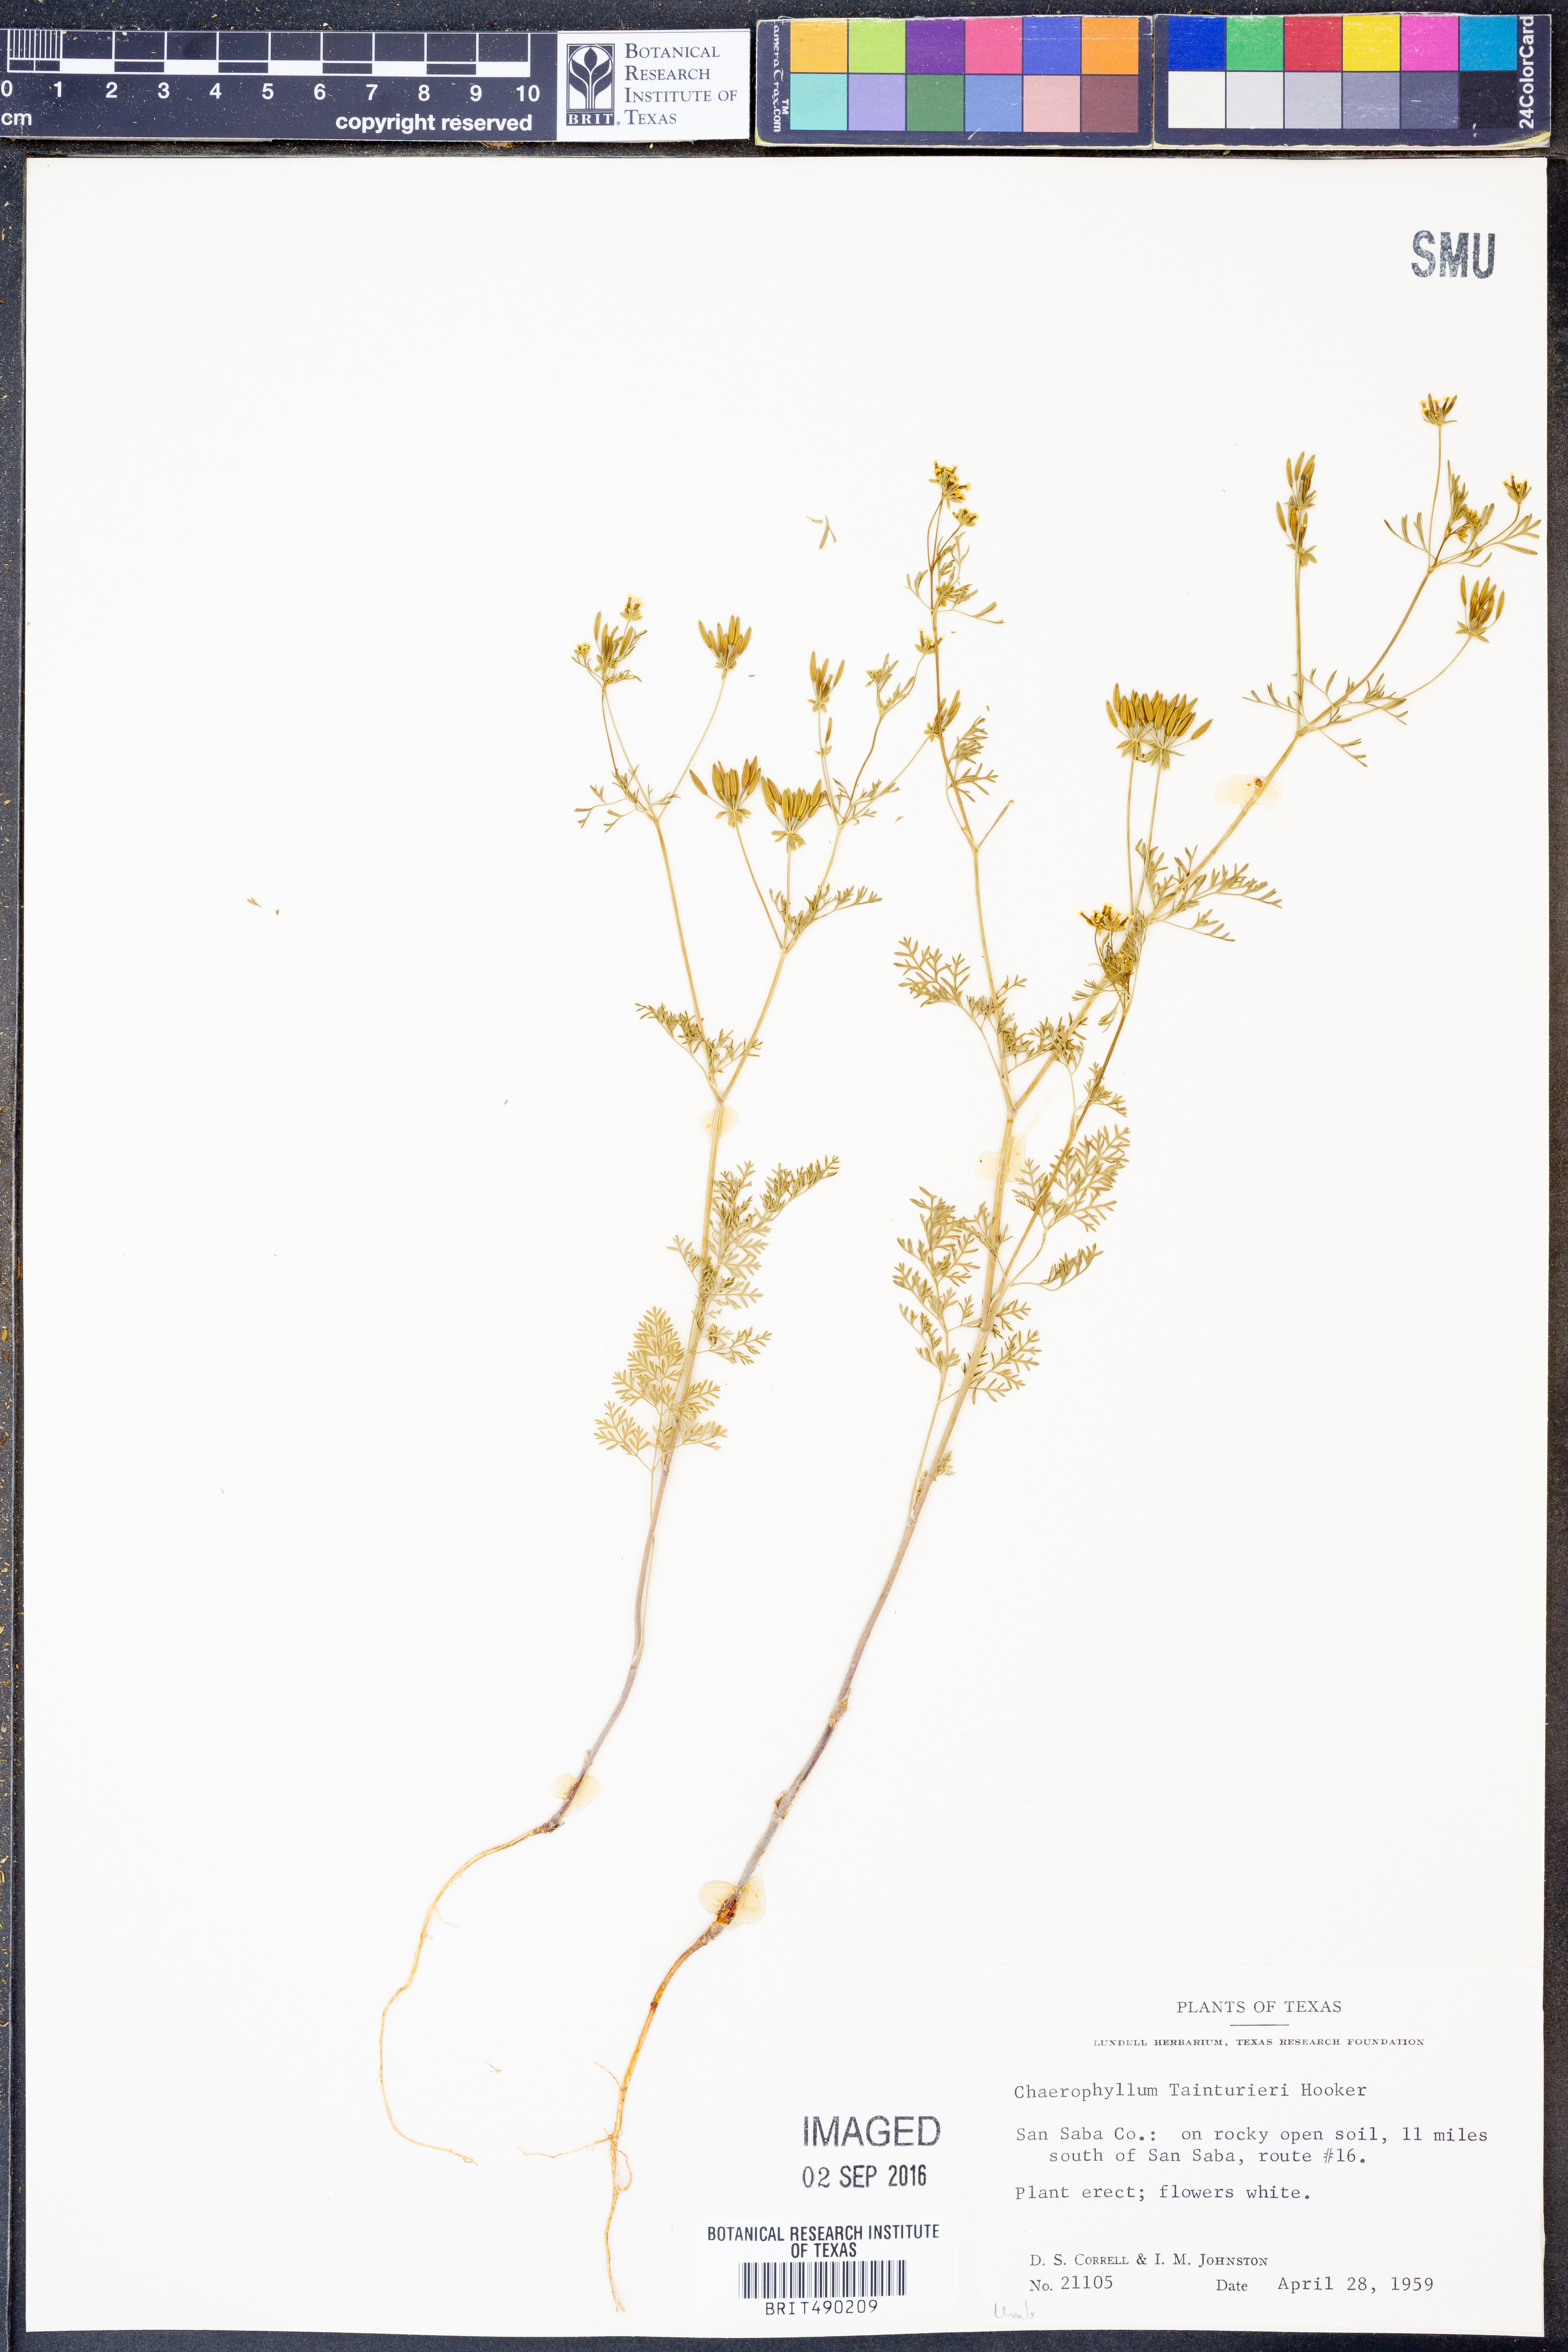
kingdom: Plantae
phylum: Tracheophyta
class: Magnoliopsida
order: Apiales
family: Apiaceae
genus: Chaerophyllum
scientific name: Chaerophyllum tainturieri
